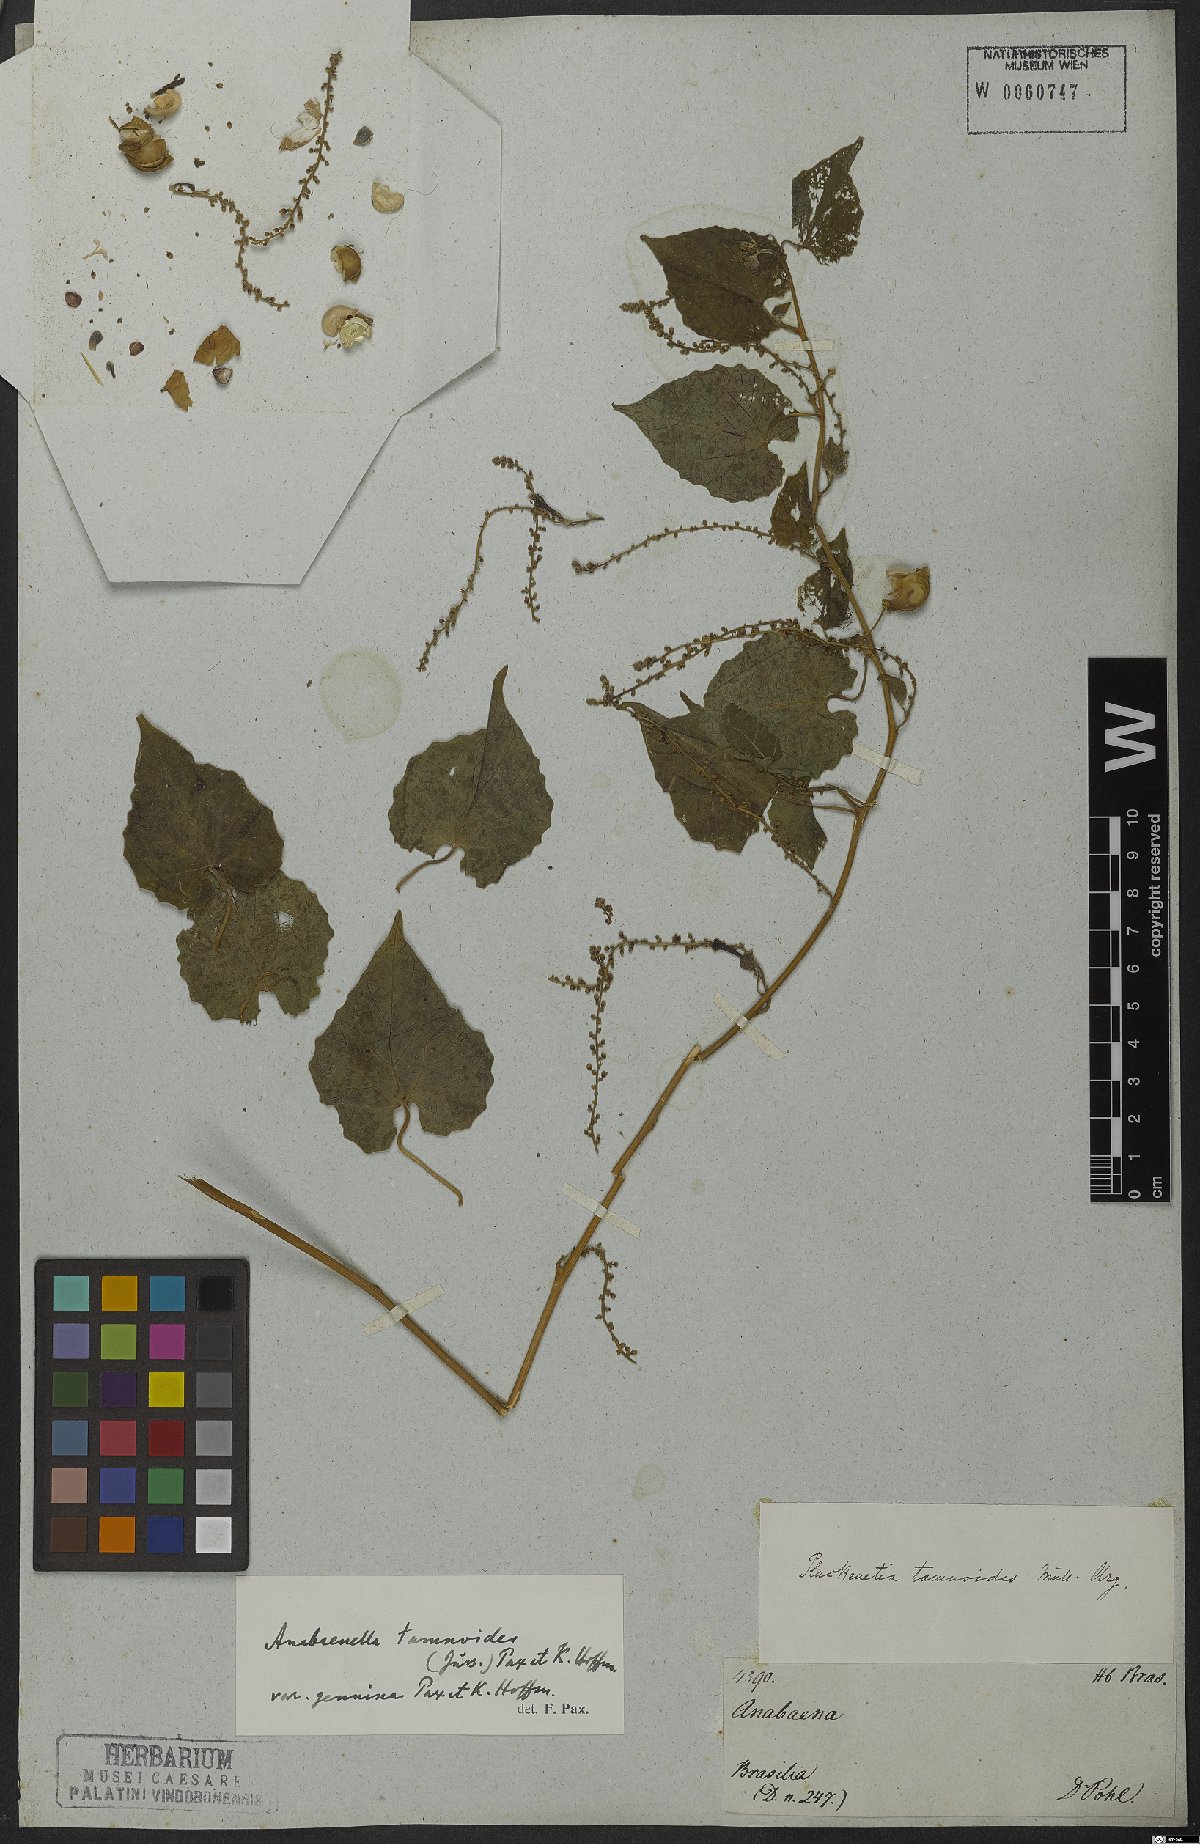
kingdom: Plantae
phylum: Tracheophyta
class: Magnoliopsida
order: Malpighiales
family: Euphorbiaceae
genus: Romanoa
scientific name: Romanoa tamnoides
